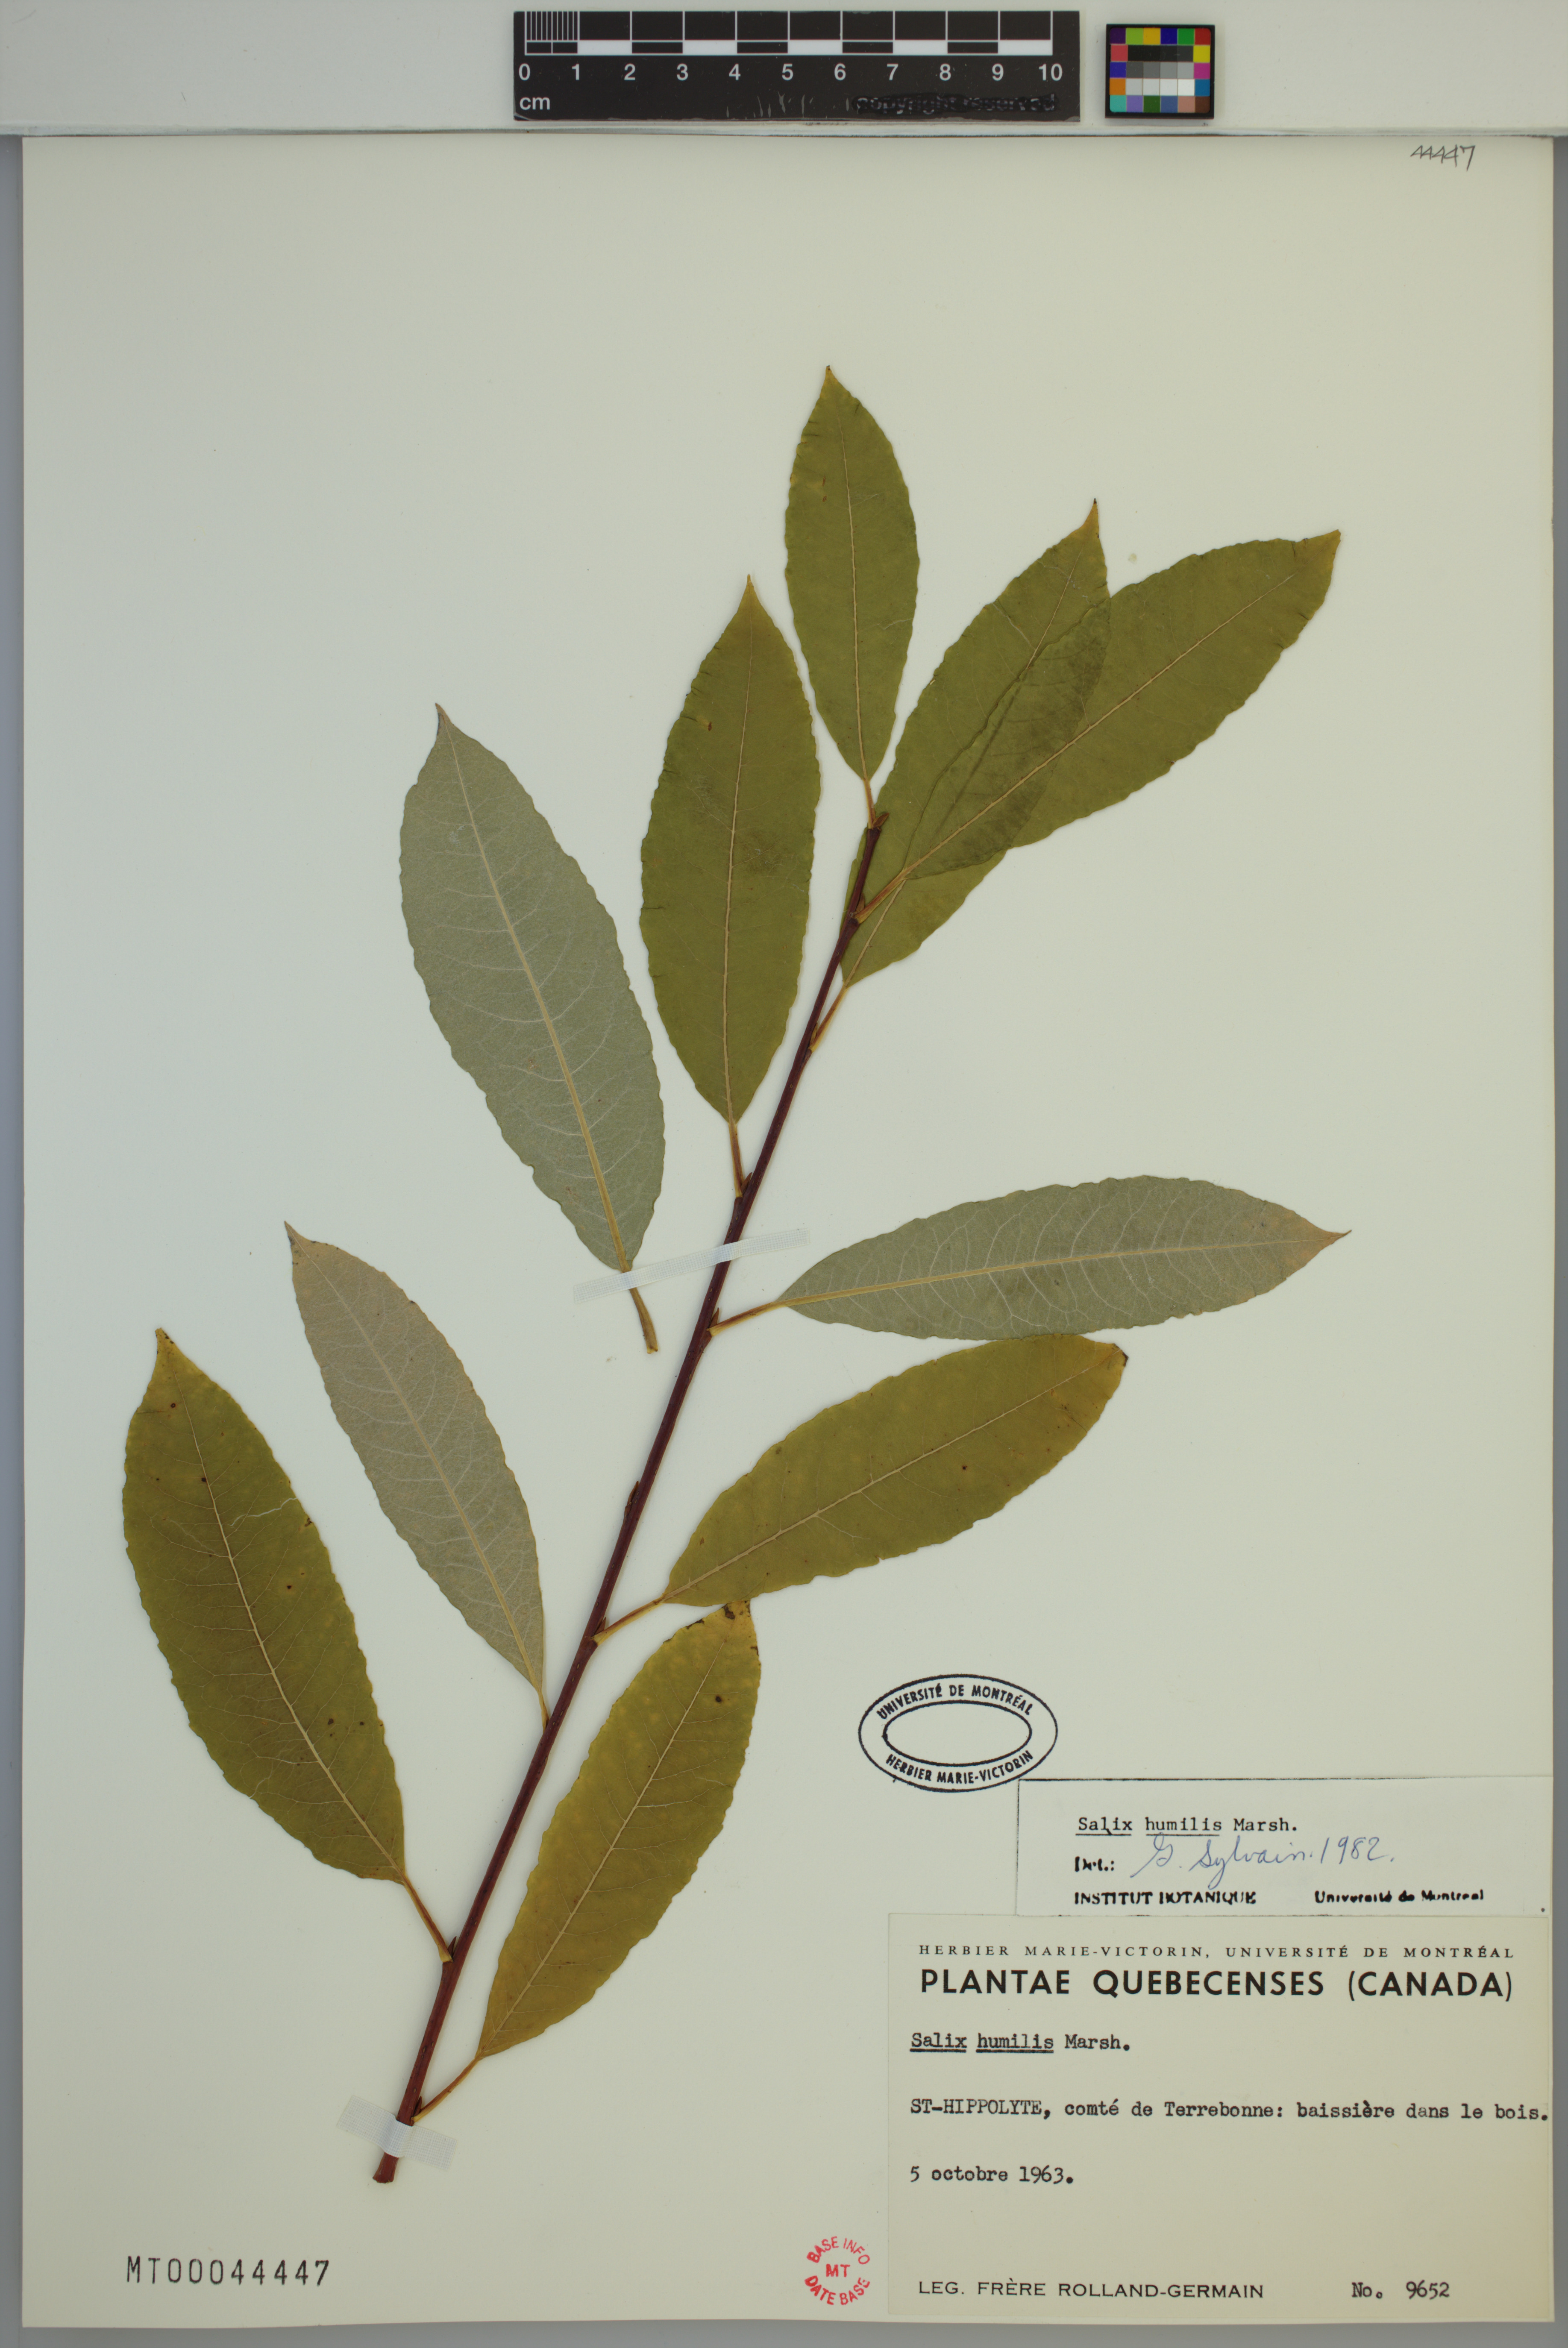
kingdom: Plantae
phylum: Tracheophyta
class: Magnoliopsida
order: Malpighiales
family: Salicaceae
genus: Salix
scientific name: Salix humilis
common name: Prairie willow
